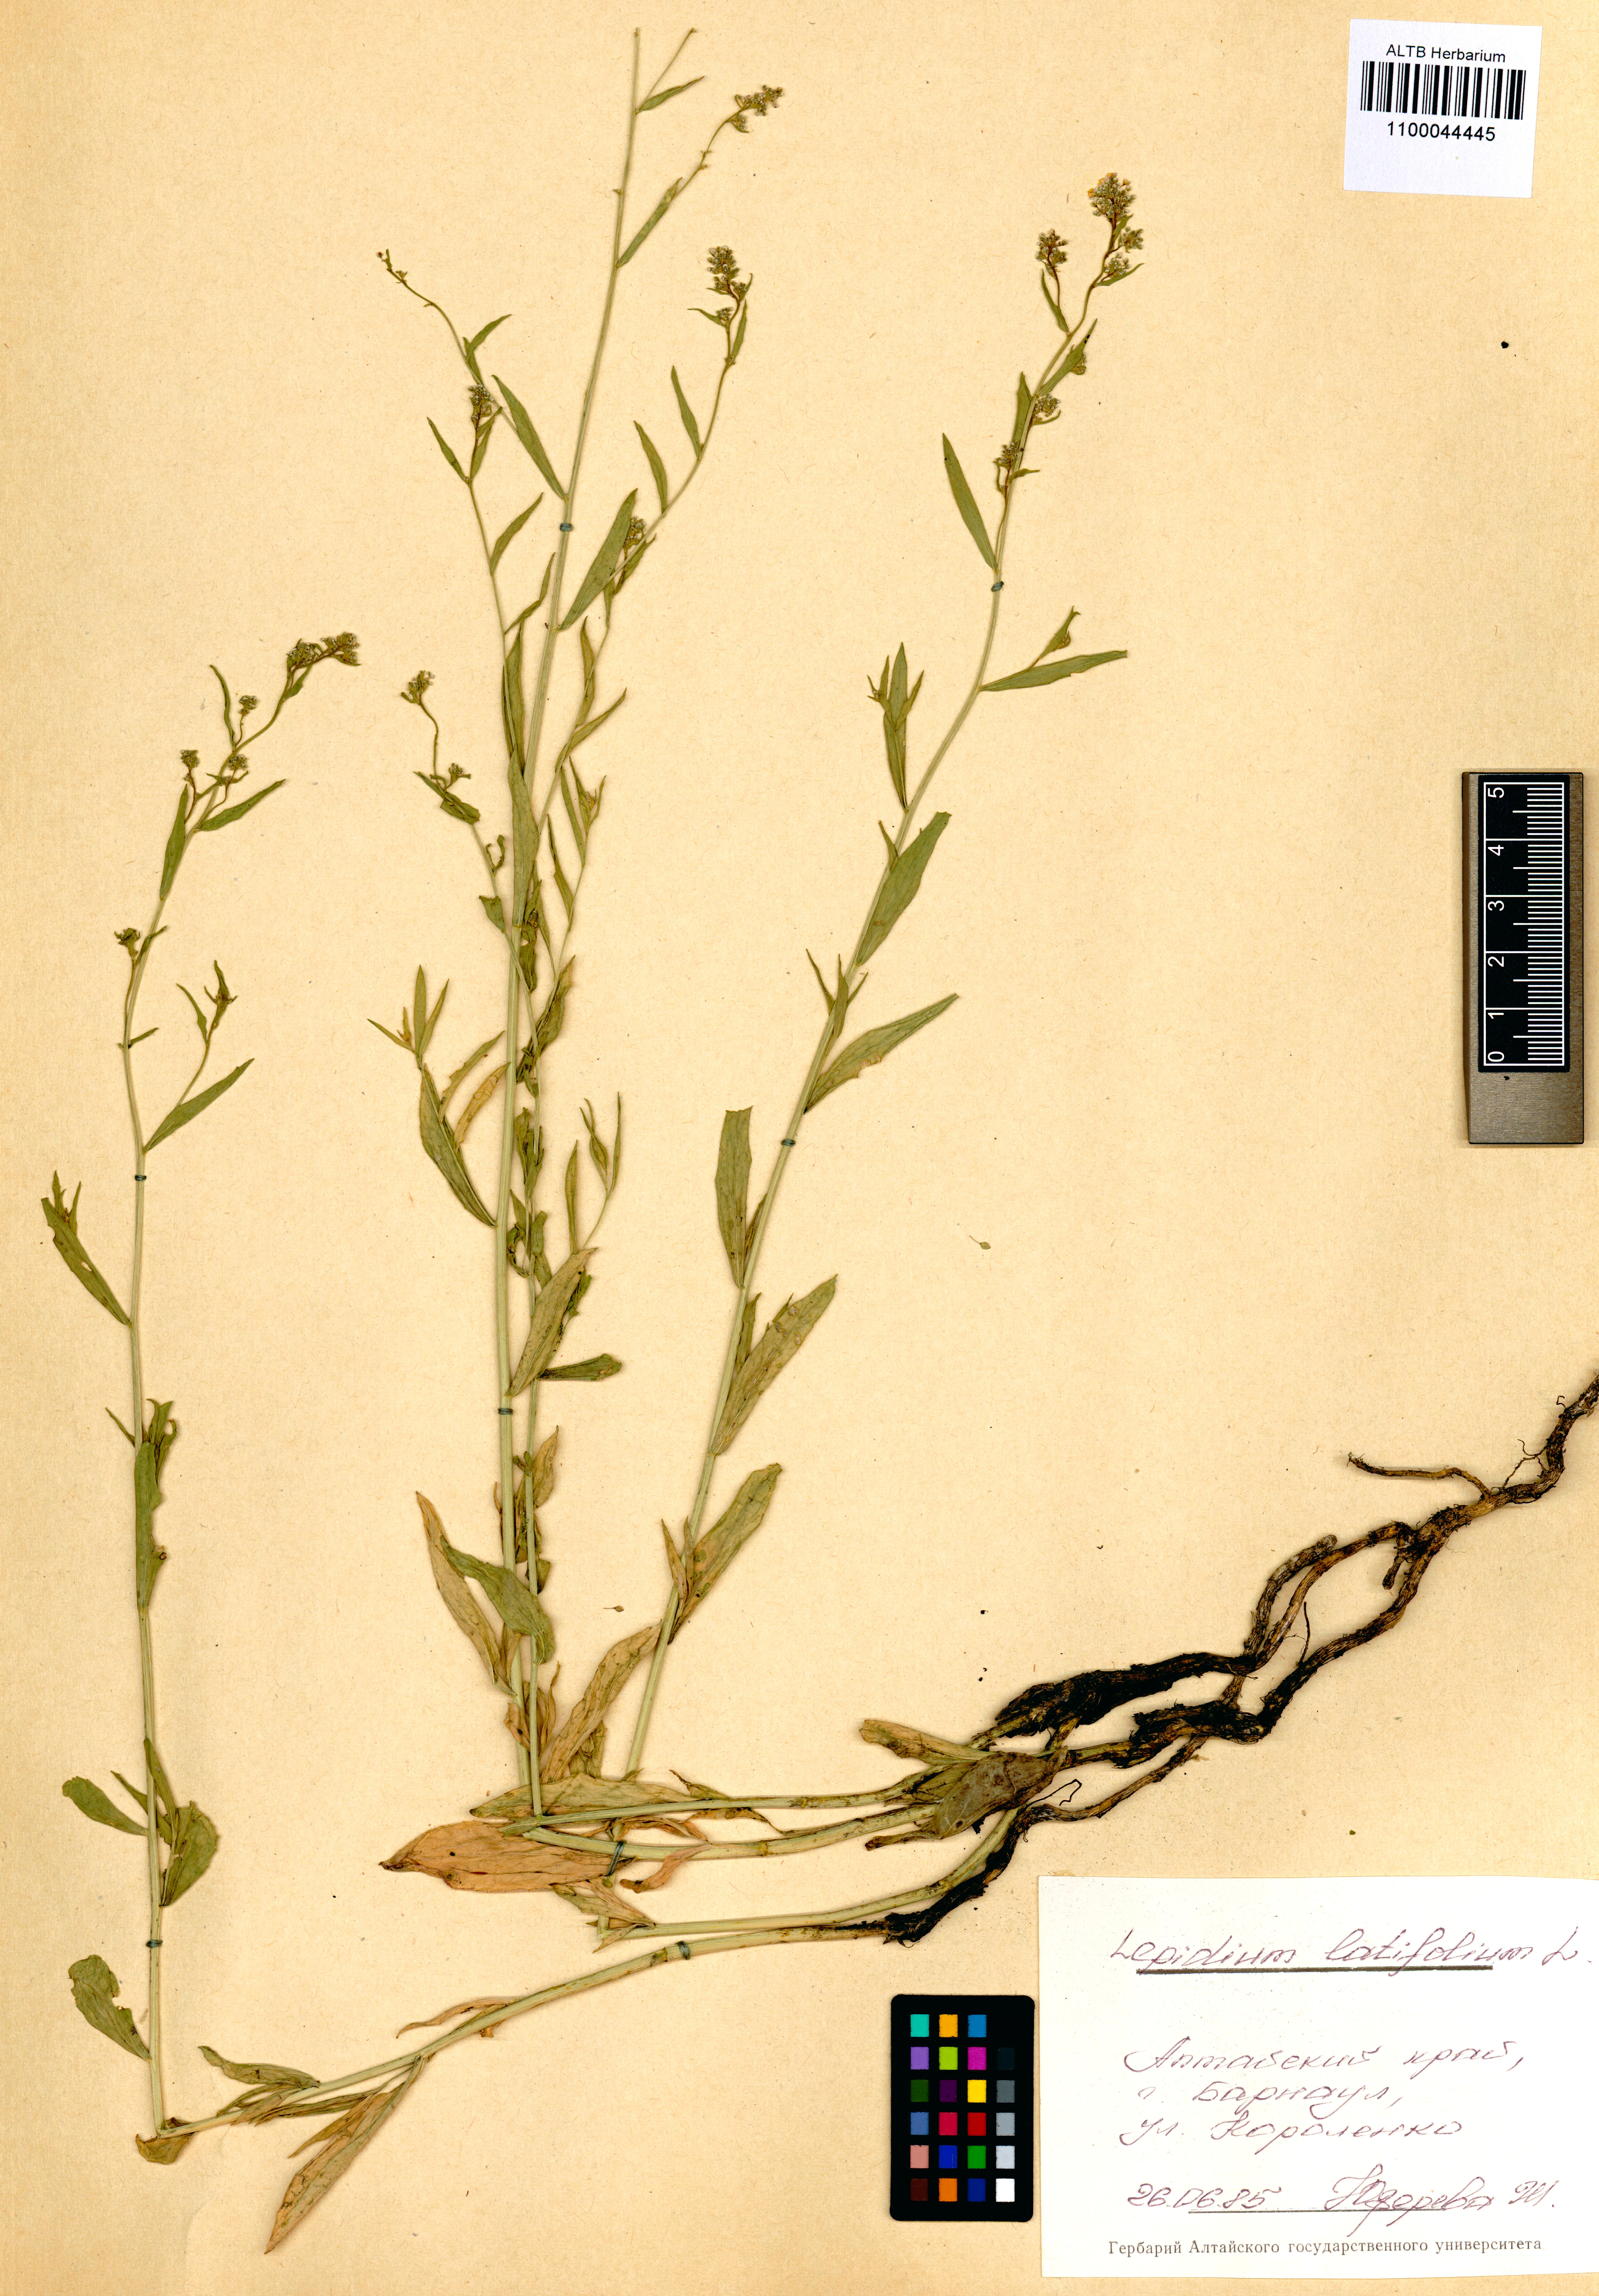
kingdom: Plantae
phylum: Tracheophyta
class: Magnoliopsida
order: Brassicales
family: Brassicaceae
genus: Lepidium
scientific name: Lepidium latifolium
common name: Dittander
